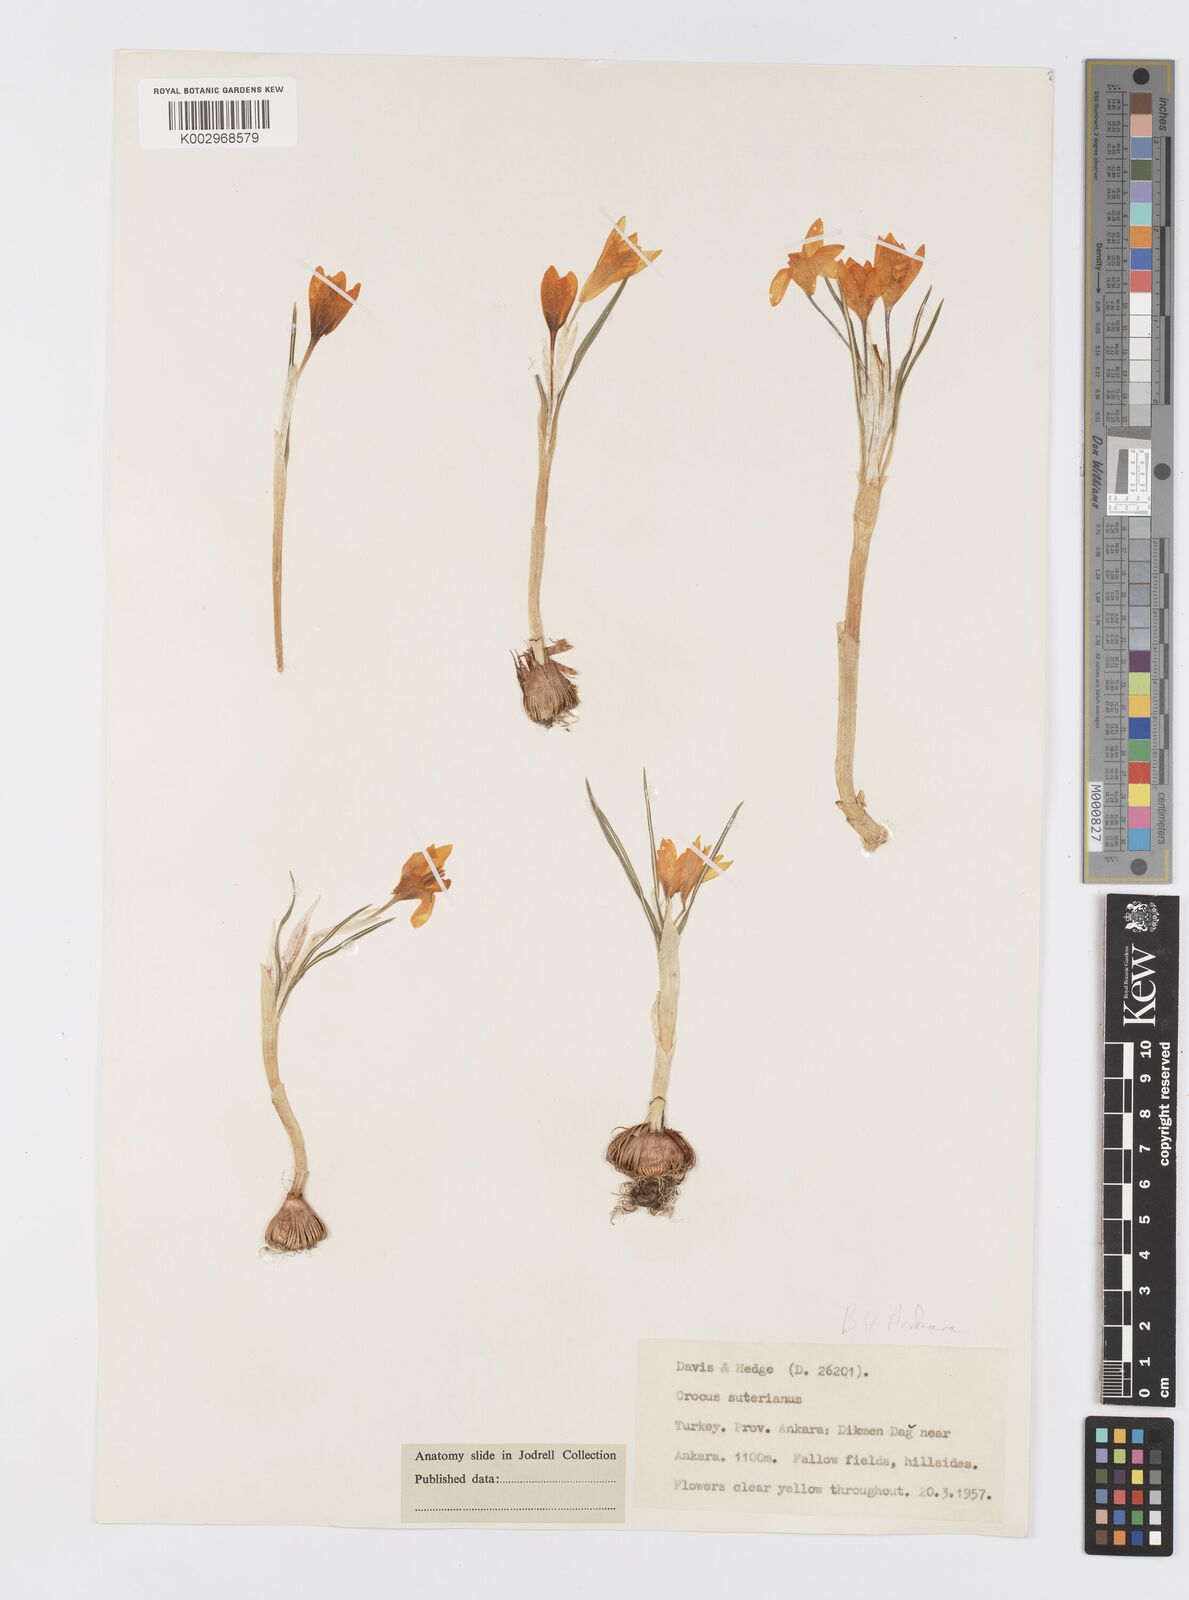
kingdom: Plantae
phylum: Tracheophyta
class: Liliopsida
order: Asparagales
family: Iridaceae
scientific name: Iridaceae
